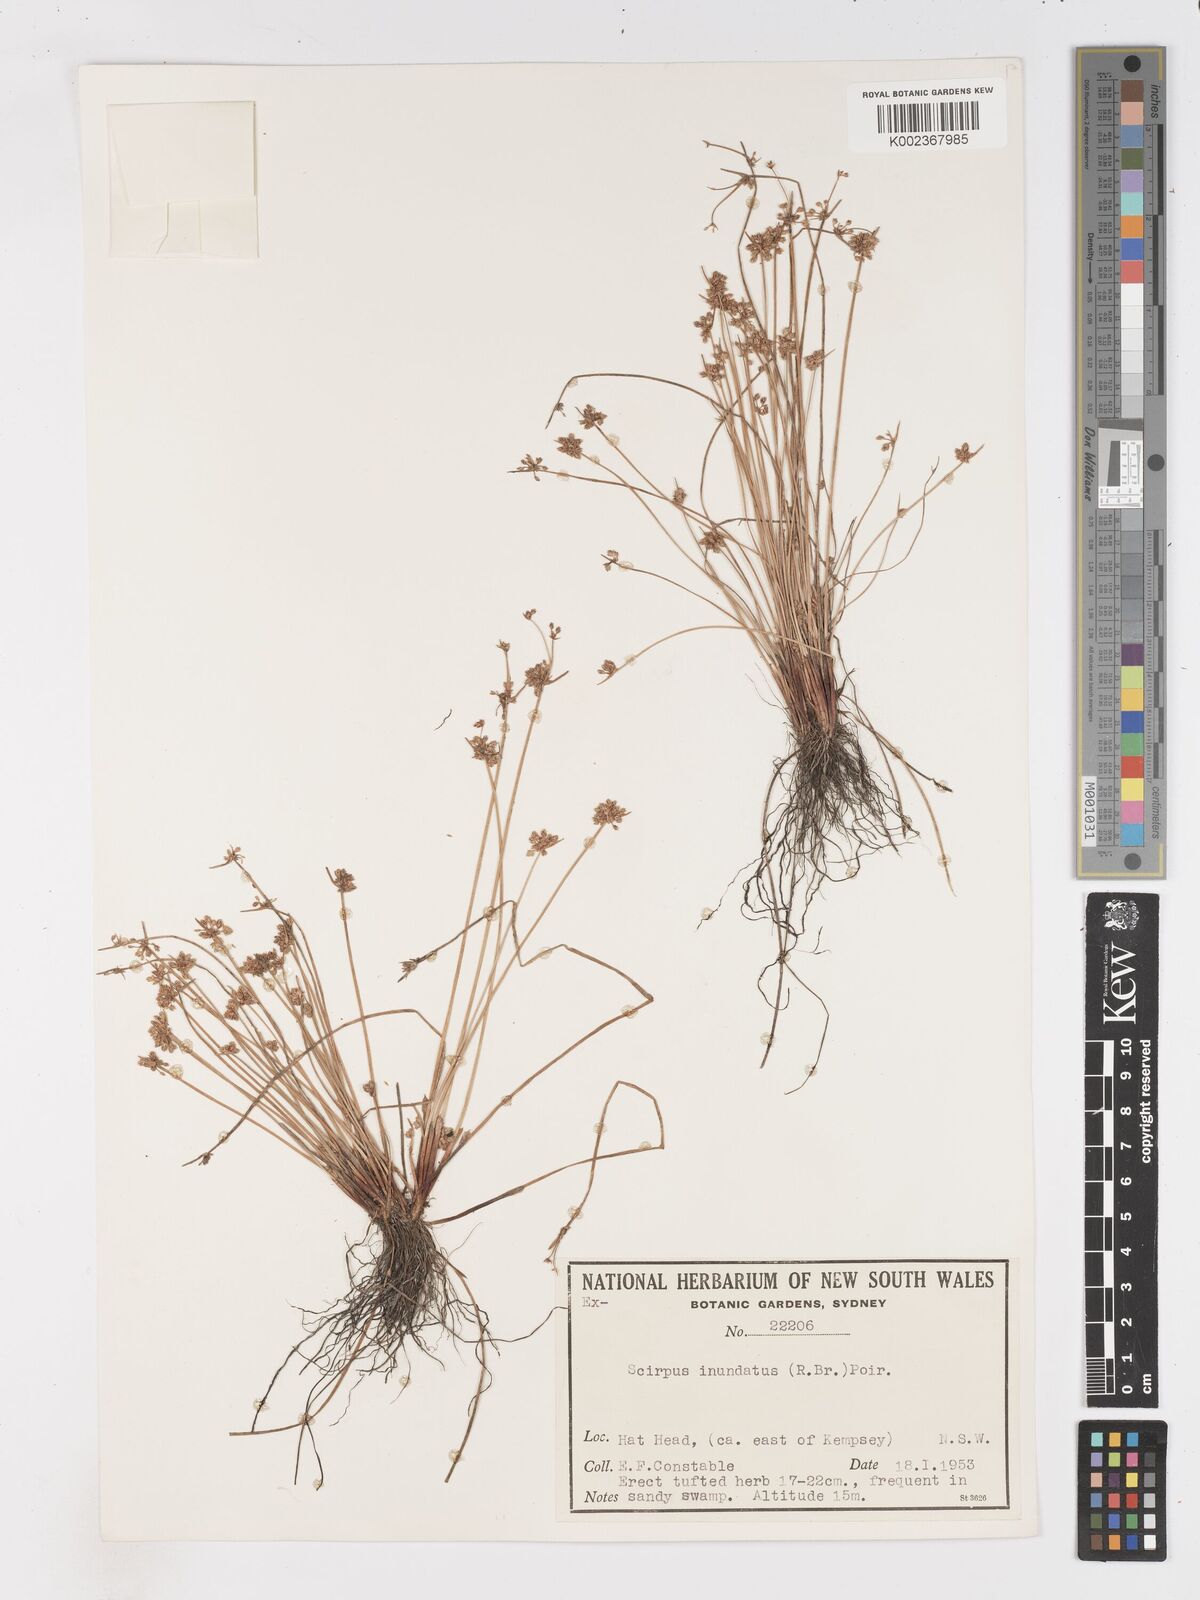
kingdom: Plantae
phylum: Tracheophyta
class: Liliopsida
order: Poales
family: Cyperaceae
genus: Isolepis
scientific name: Isolepis inundata
